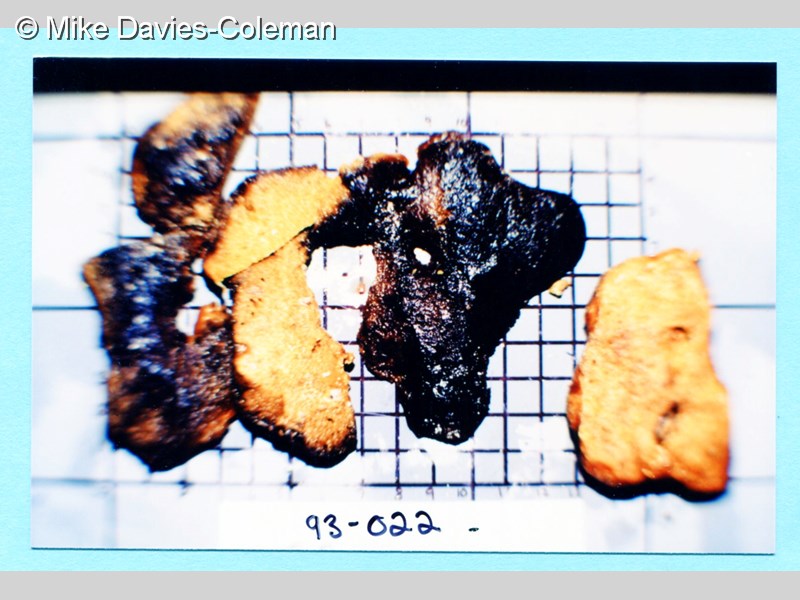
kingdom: Animalia
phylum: Porifera
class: Demospongiae
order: Poecilosclerida
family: Guitarridae
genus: Guitarra
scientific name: Guitarra fimbriata
